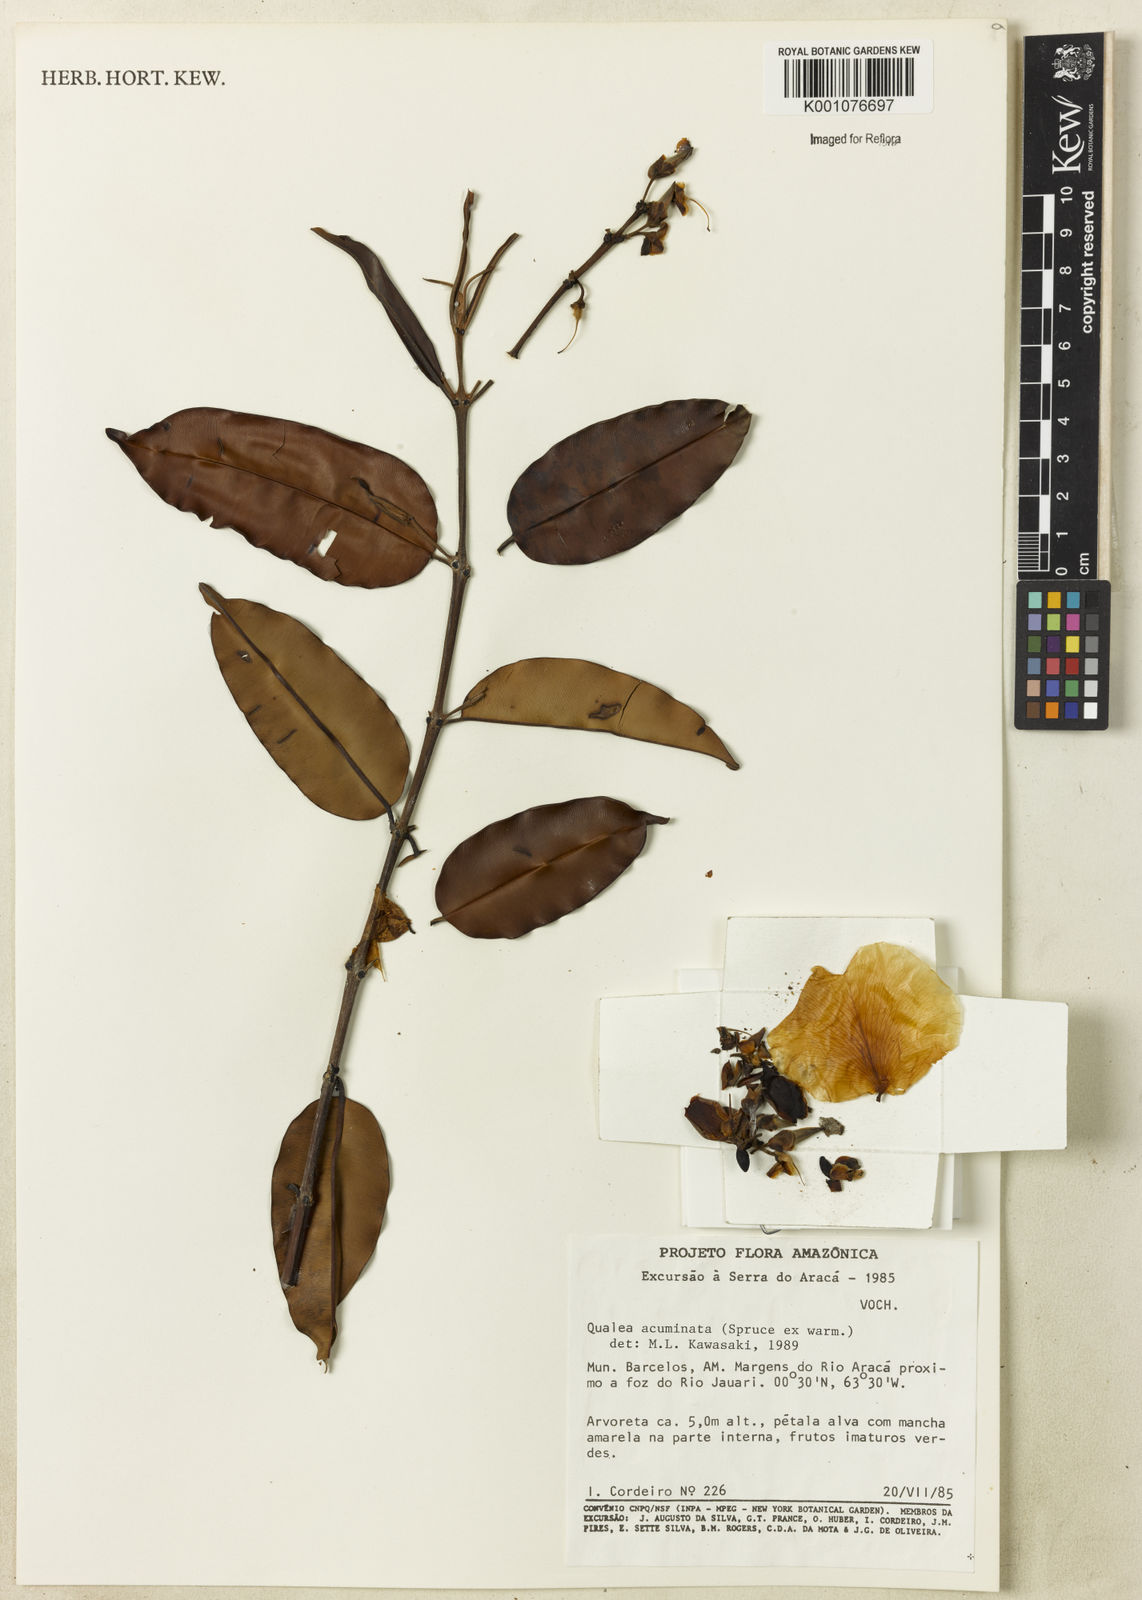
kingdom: Plantae
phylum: Tracheophyta
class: Magnoliopsida
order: Myrtales
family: Vochysiaceae
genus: Qualea
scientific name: Qualea acuminata
